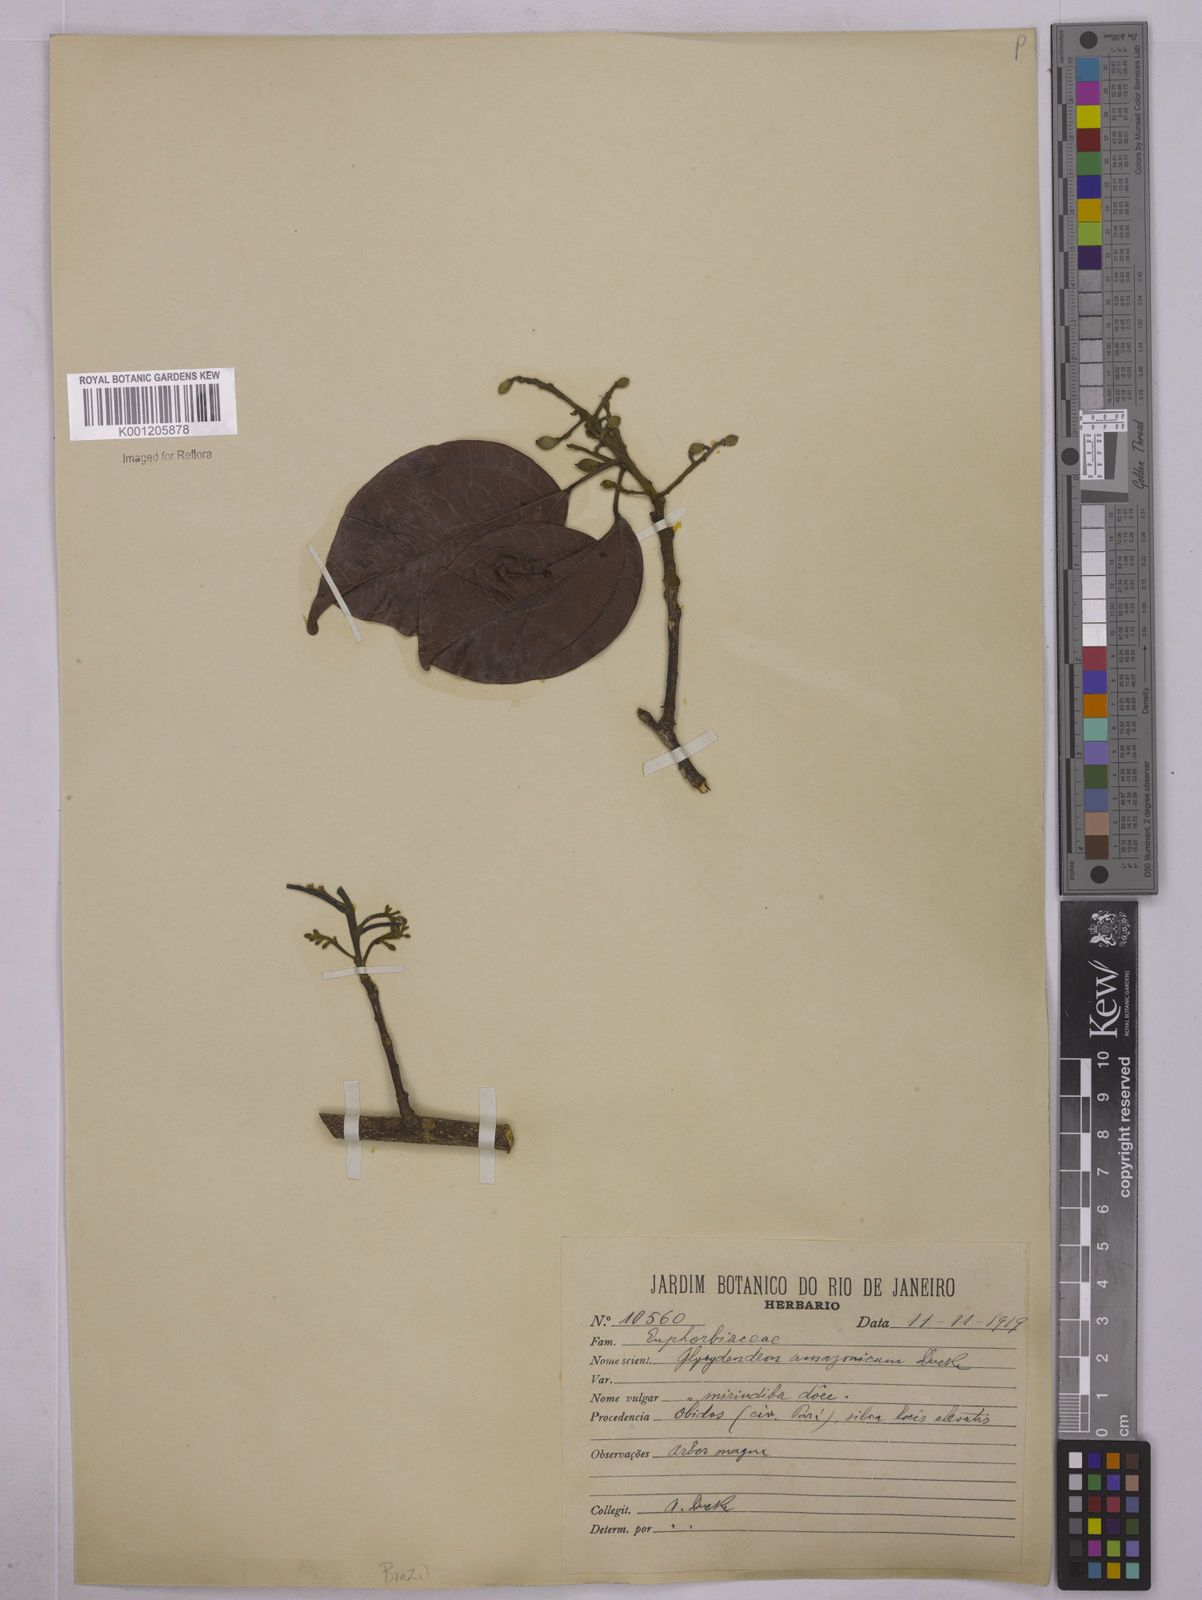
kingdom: Plantae
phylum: Tracheophyta
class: Magnoliopsida
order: Malpighiales
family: Euphorbiaceae
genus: Glycydendron
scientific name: Glycydendron amazonicum
